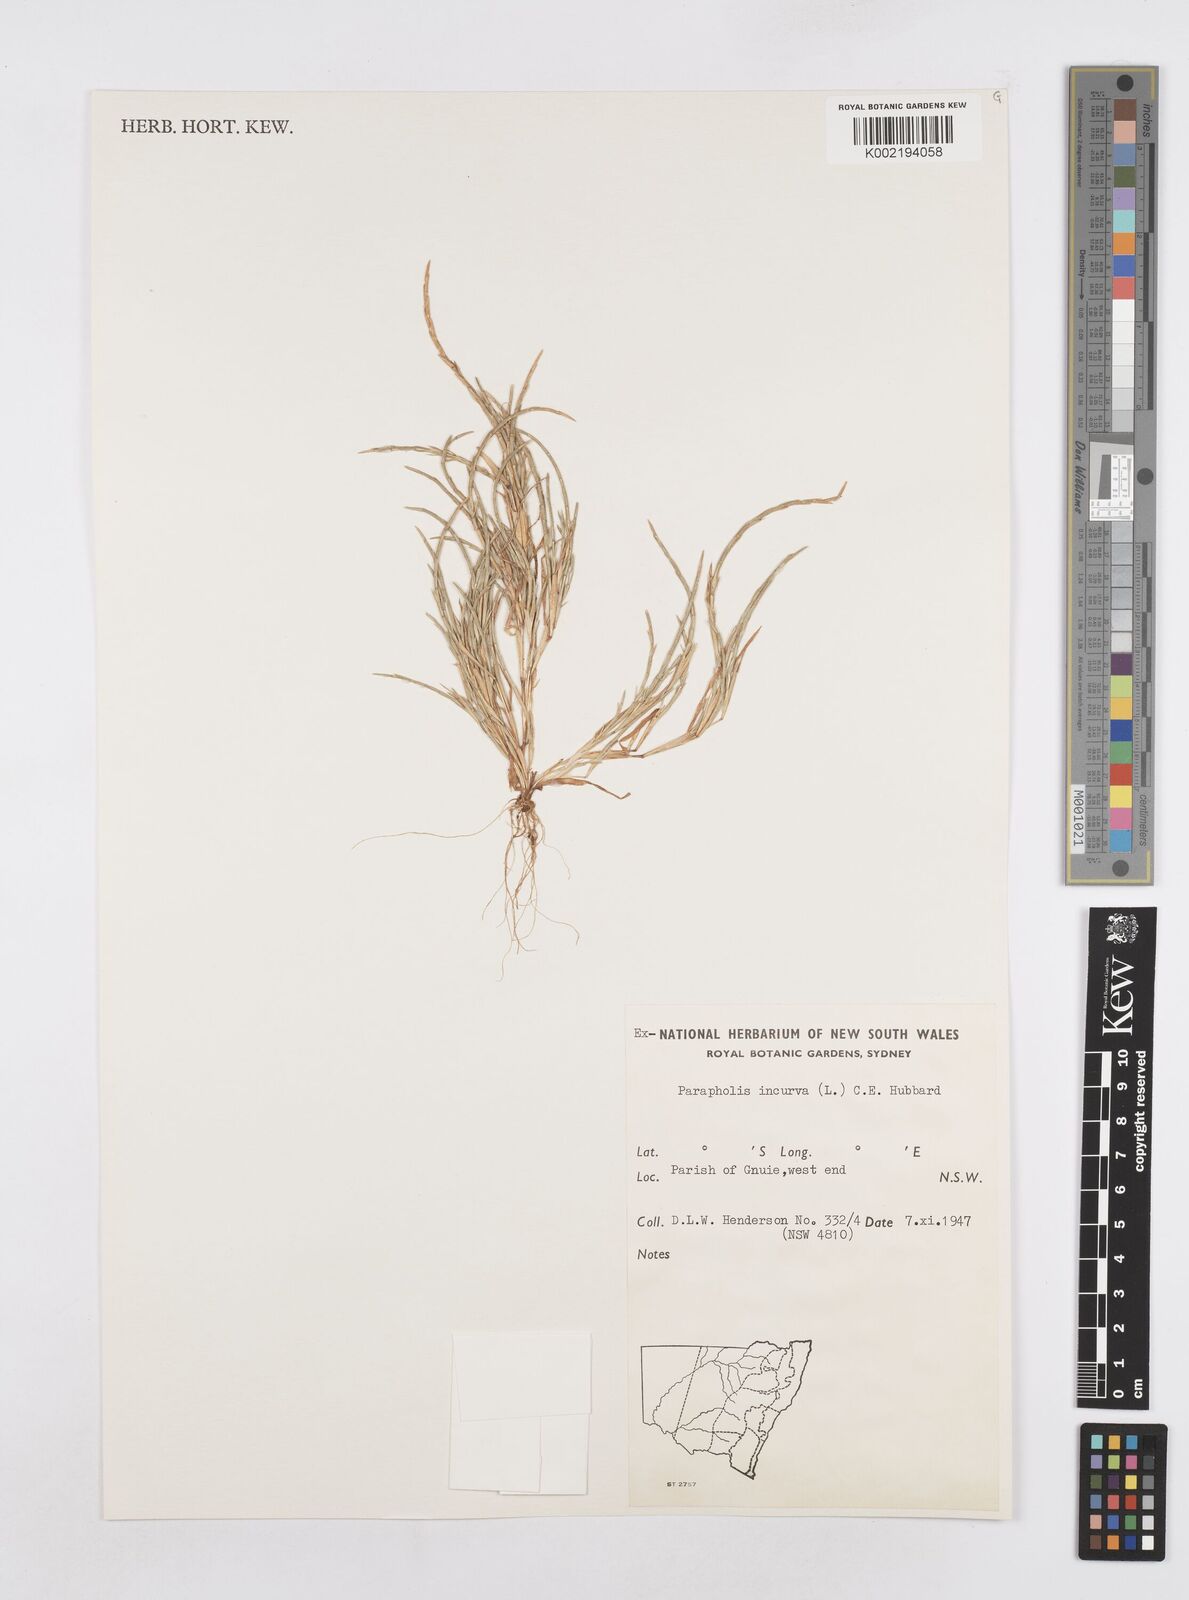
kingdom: Plantae
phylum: Tracheophyta
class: Liliopsida
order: Poales
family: Poaceae
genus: Parapholis
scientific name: Parapholis incurva
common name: Curved sicklegrass
